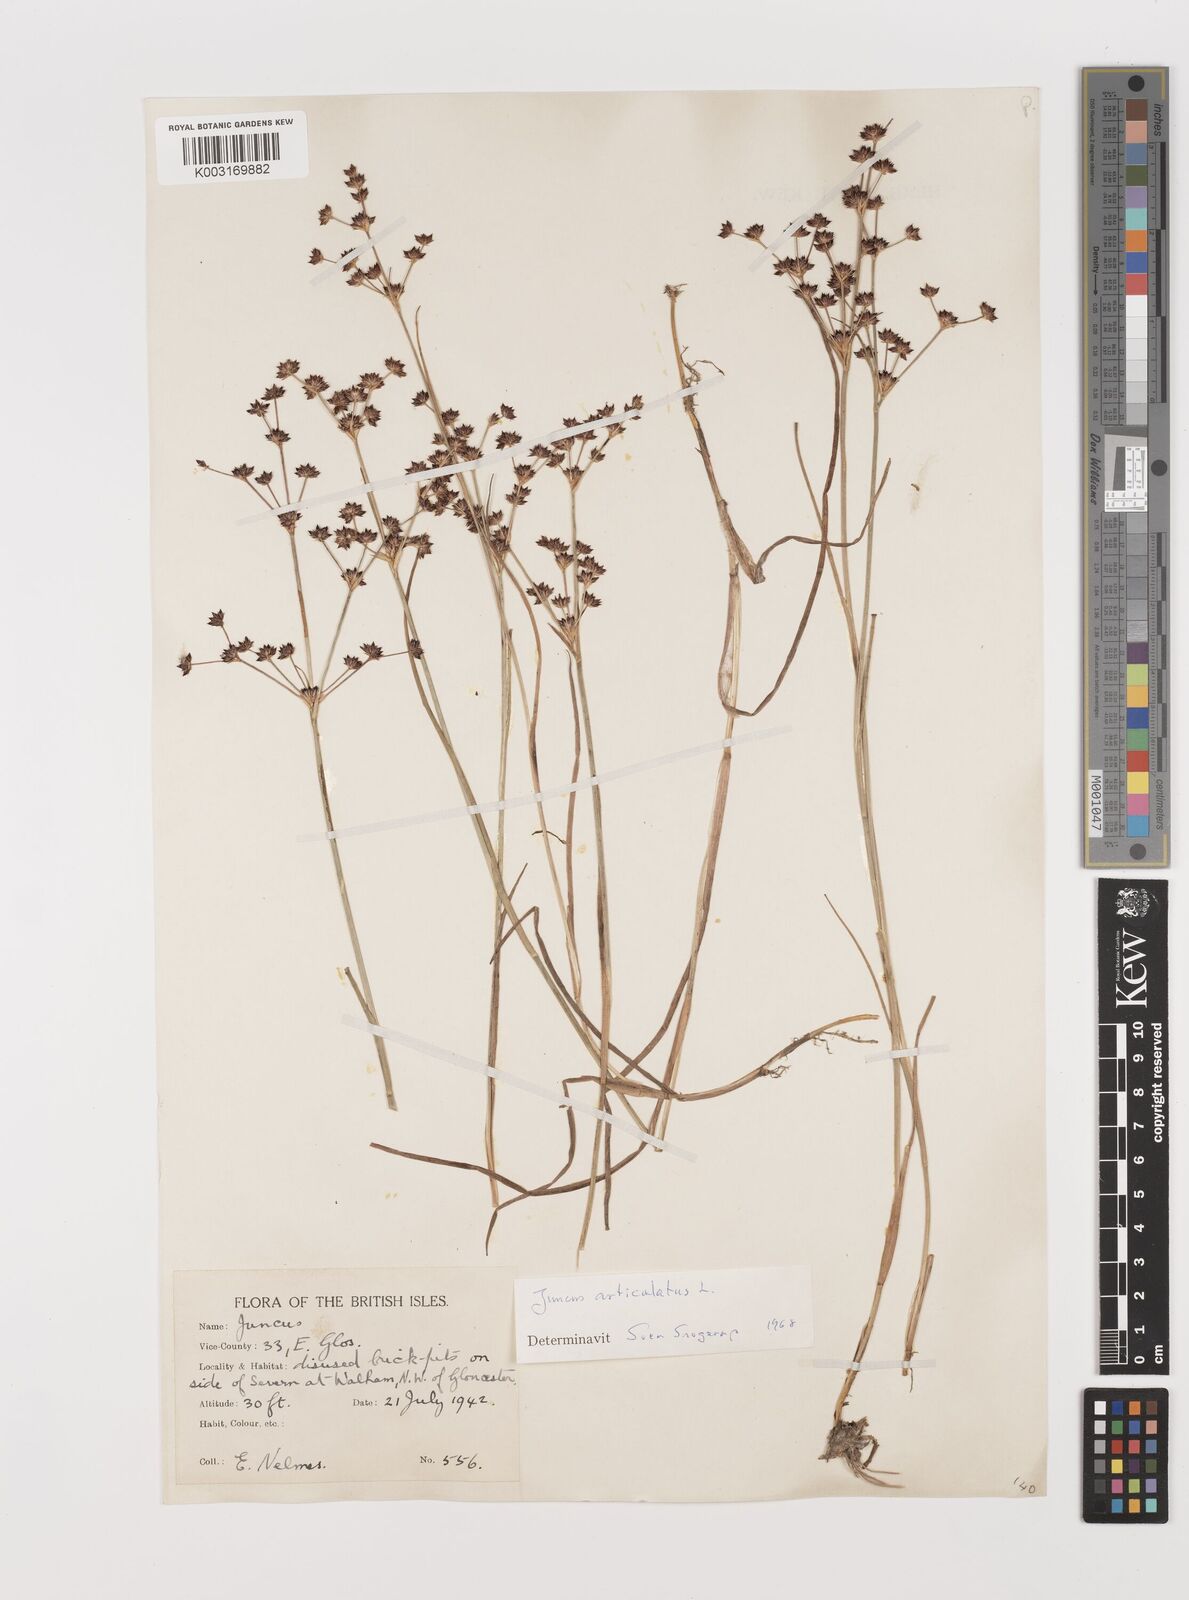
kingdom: Plantae
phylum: Tracheophyta
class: Liliopsida
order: Poales
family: Juncaceae
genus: Juncus
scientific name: Juncus articulatus
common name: Jointed rush
